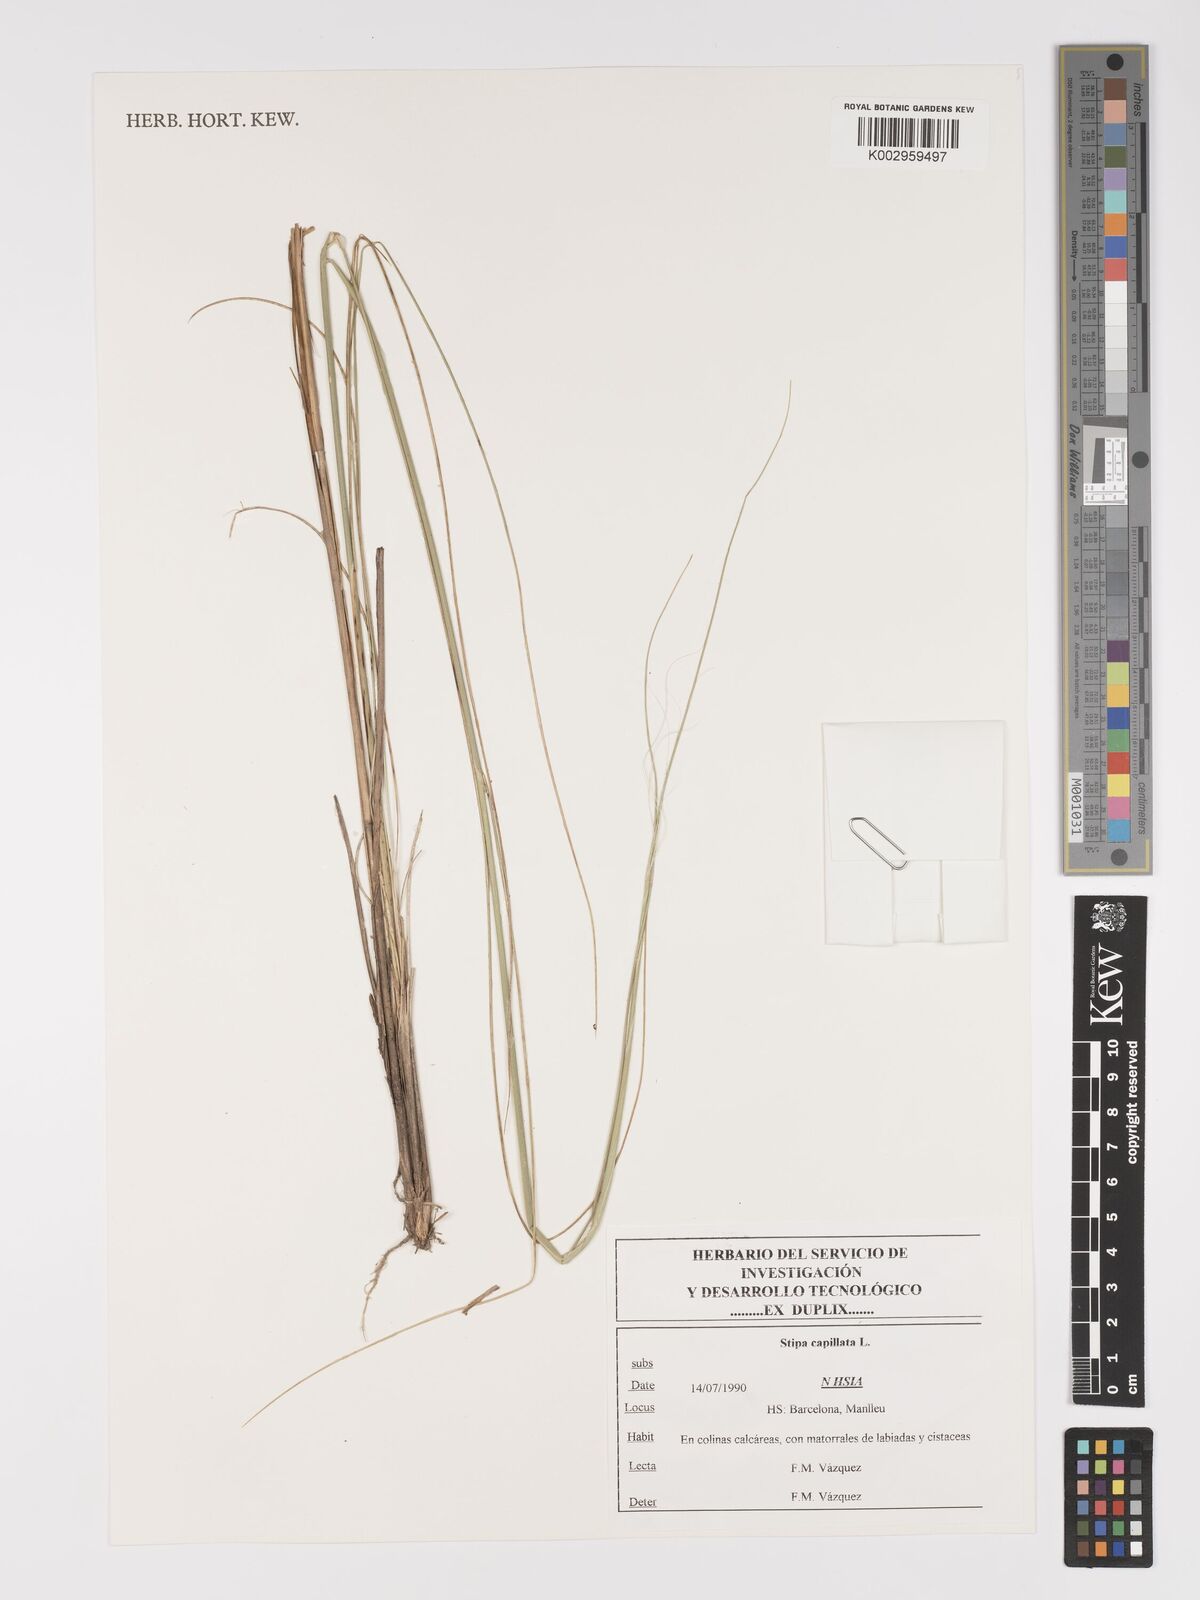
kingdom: Plantae
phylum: Tracheophyta
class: Liliopsida
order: Poales
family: Poaceae
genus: Stipa
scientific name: Stipa capillata
